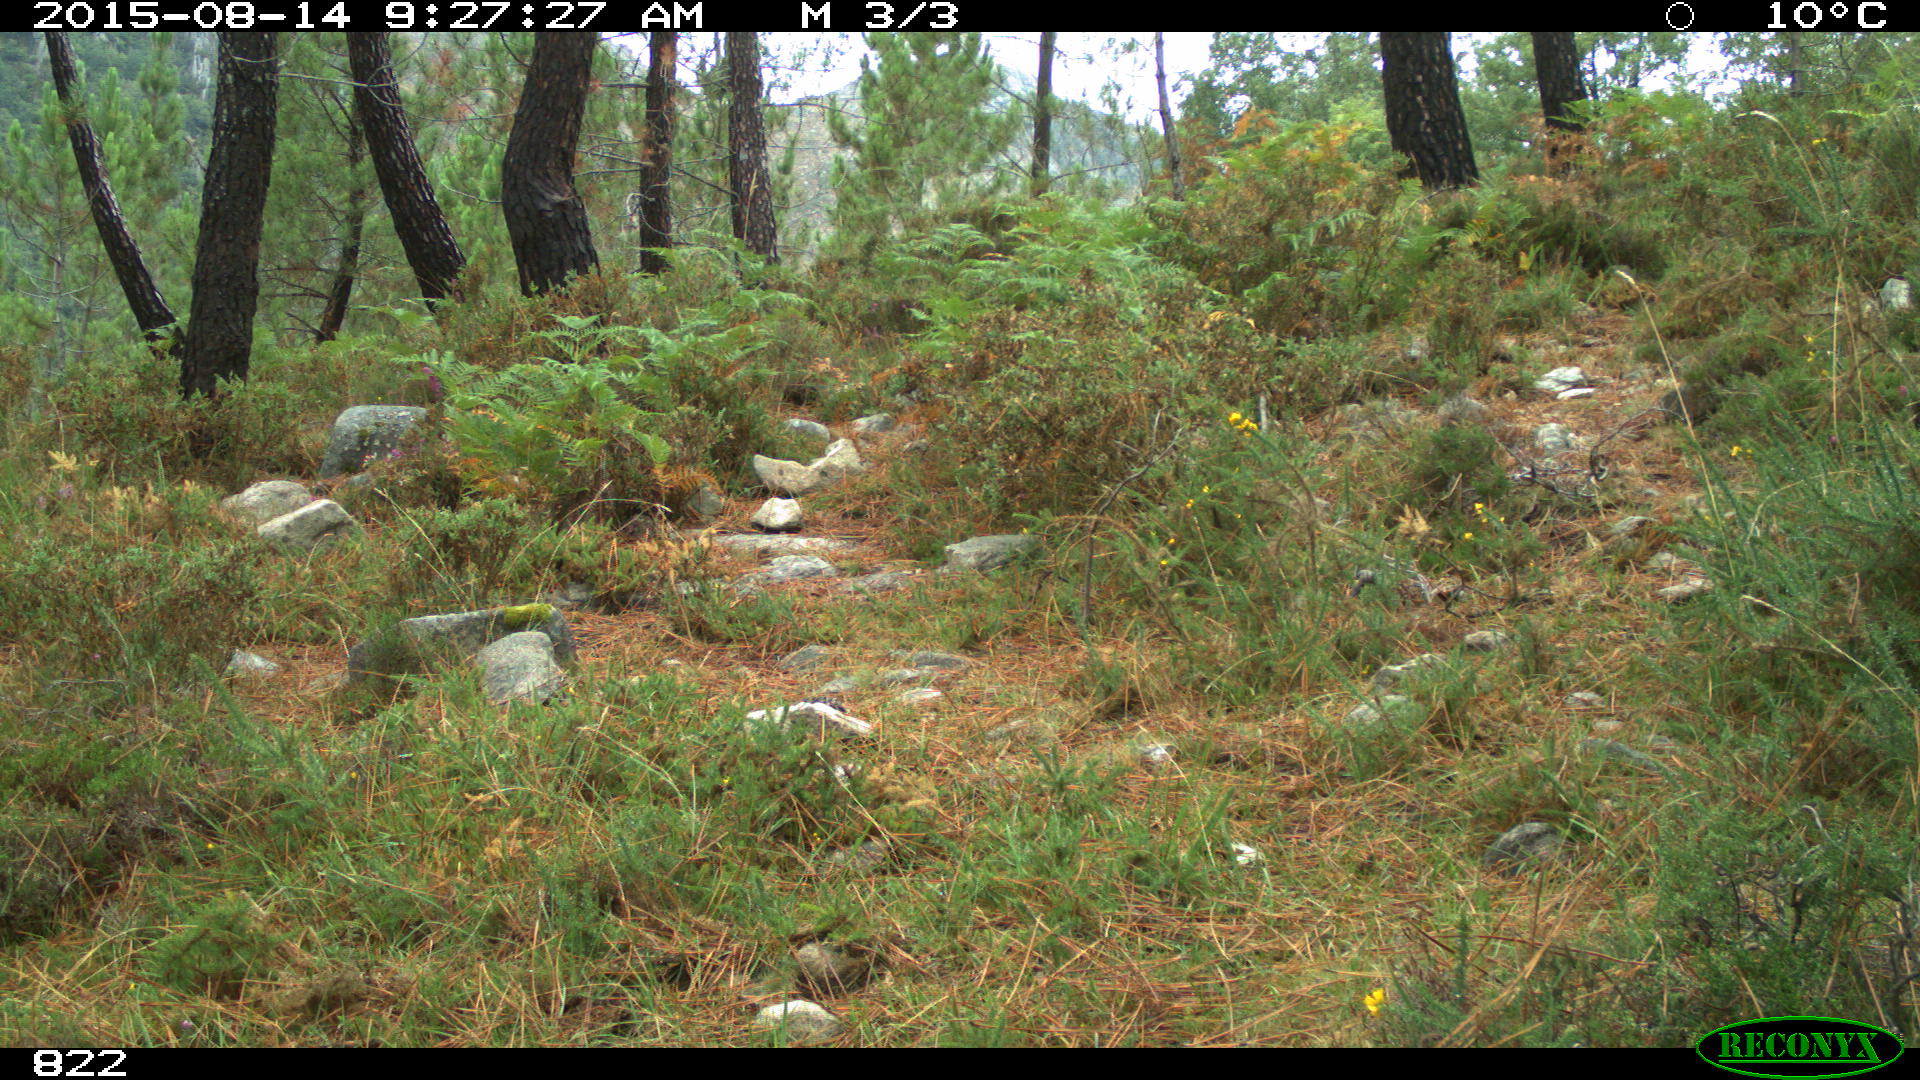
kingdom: Animalia
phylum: Chordata
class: Mammalia
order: Artiodactyla
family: Suidae
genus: Sus
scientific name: Sus scrofa
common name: Wild boar
